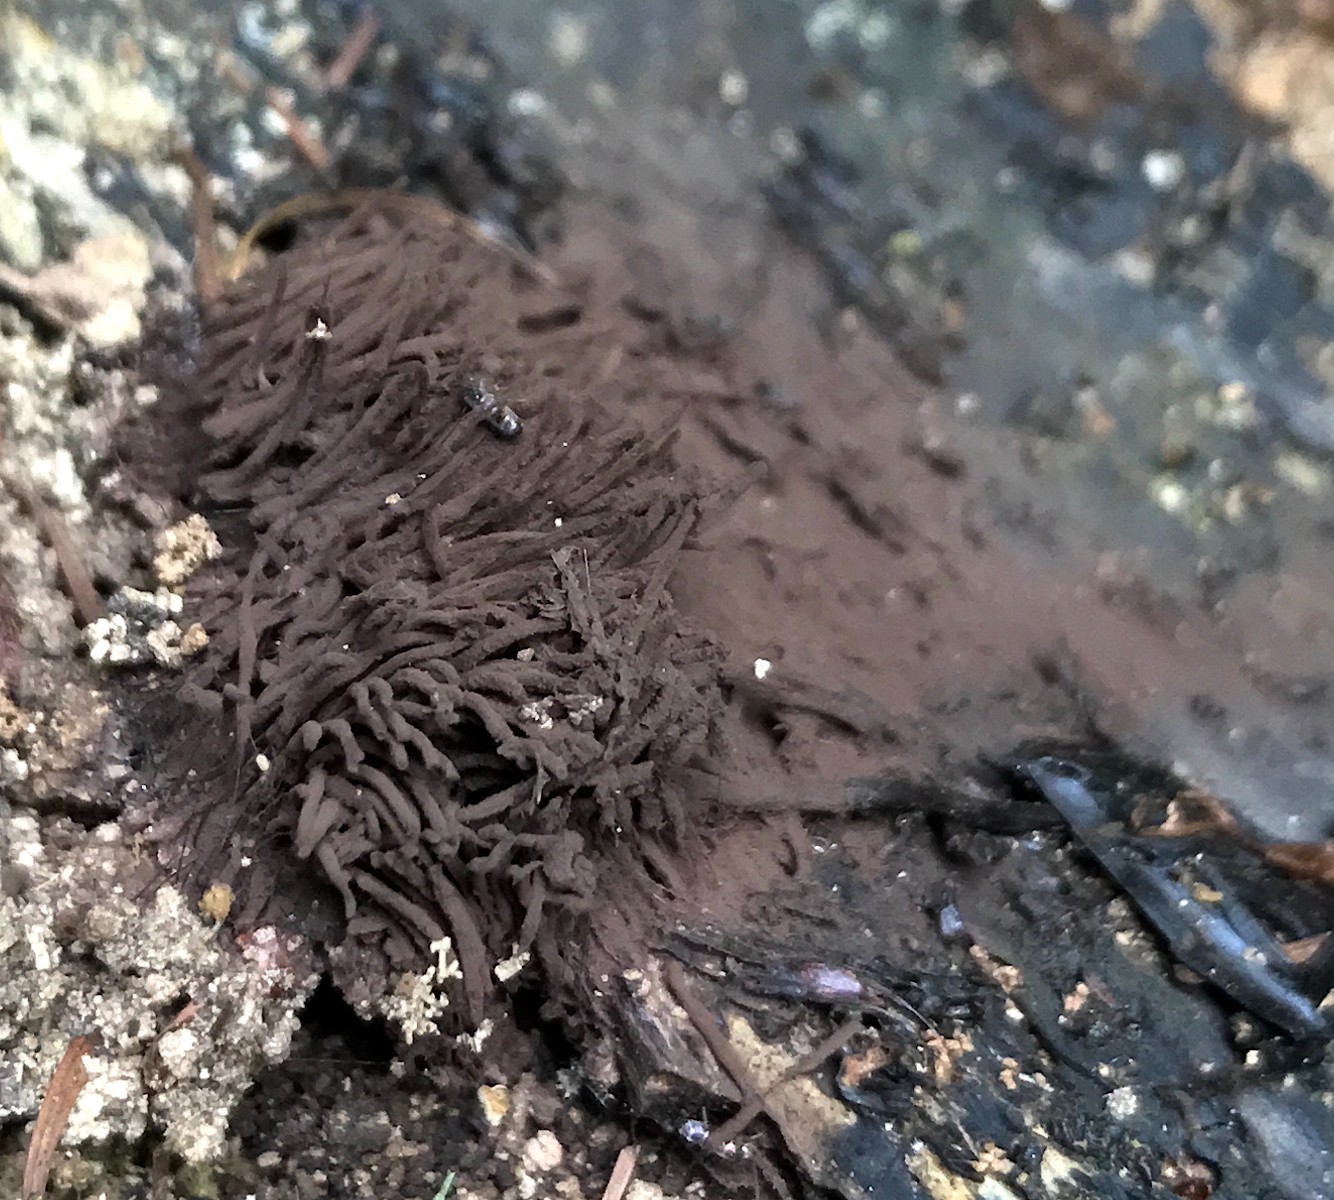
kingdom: Protozoa
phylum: Mycetozoa
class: Myxomycetes
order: Stemonitidales
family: Stemonitidaceae
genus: Stemonitis
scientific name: Stemonitis
